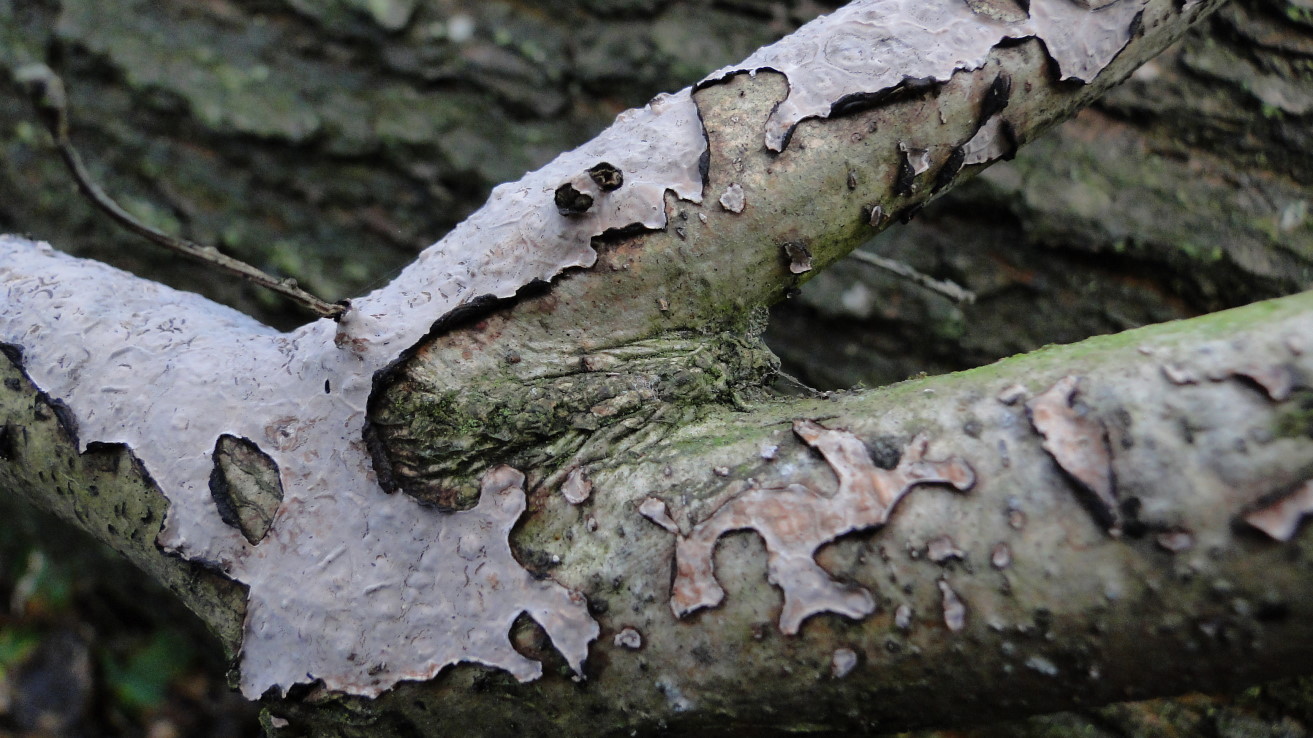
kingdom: Fungi
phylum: Basidiomycota
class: Agaricomycetes
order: Russulales
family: Peniophoraceae
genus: Peniophora
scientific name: Peniophora quercina
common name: ege-voksskind
